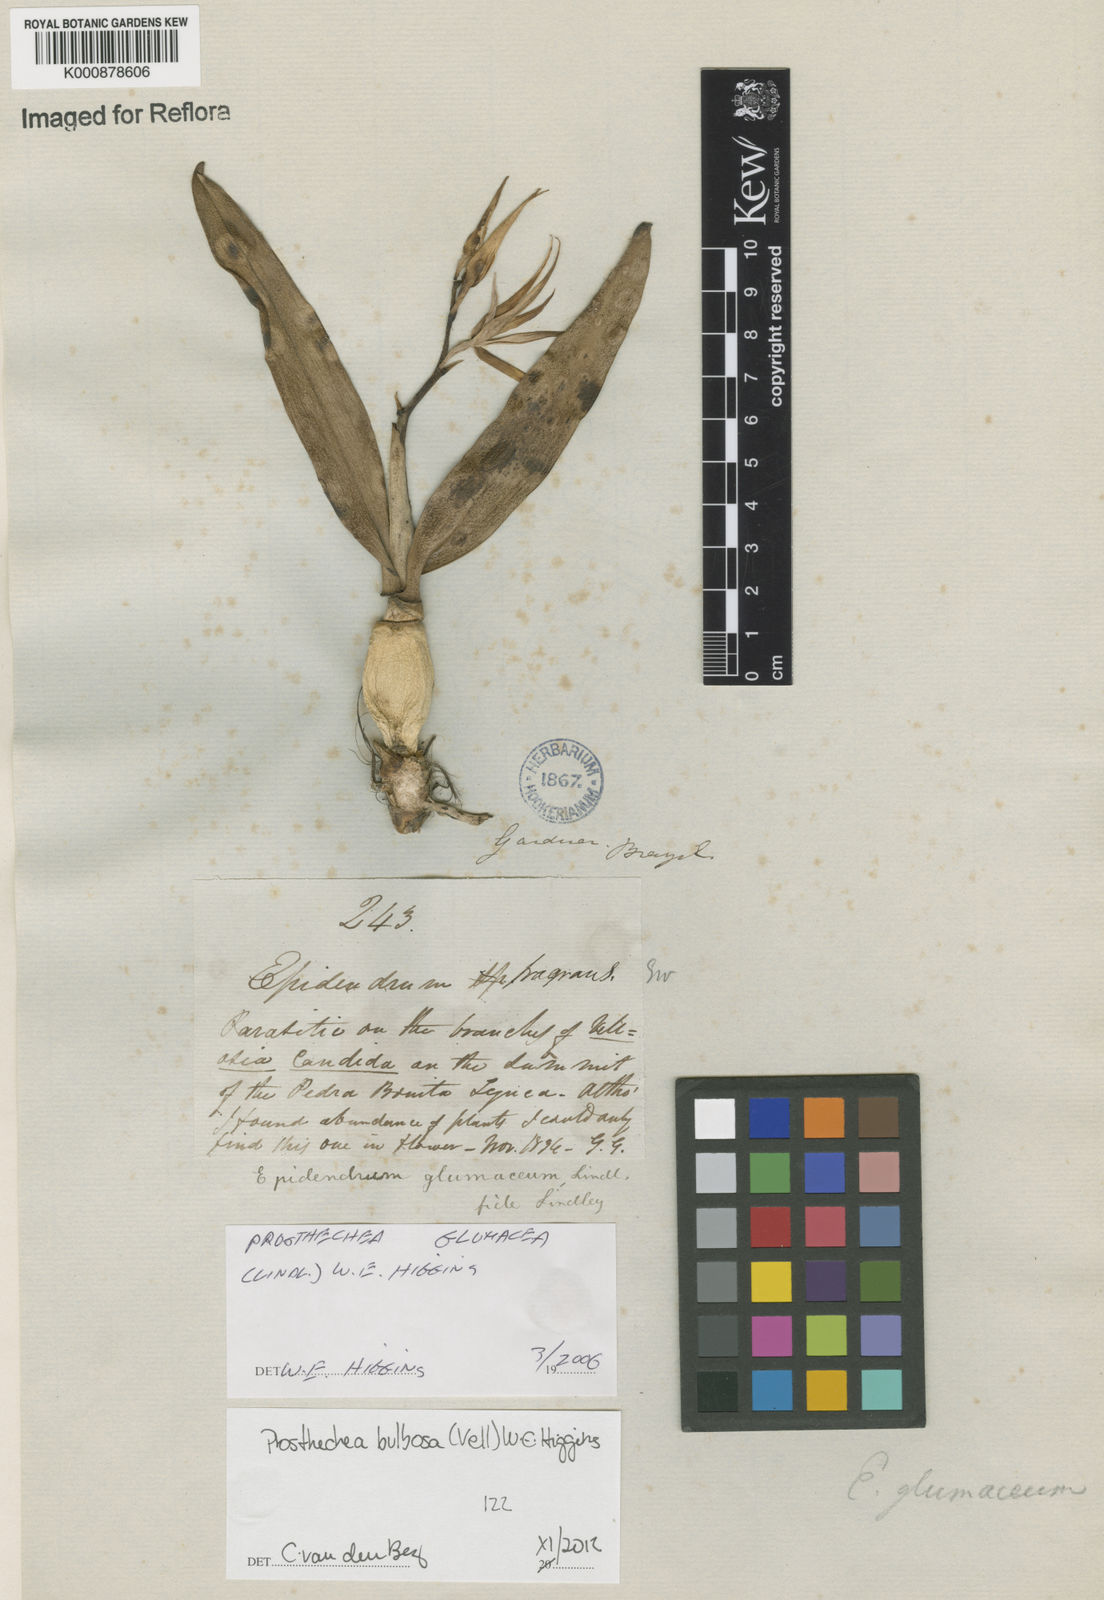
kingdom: Plantae
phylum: Tracheophyta
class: Liliopsida
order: Asparagales
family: Orchidaceae
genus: Prosthechea
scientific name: Prosthechea bulbosa
